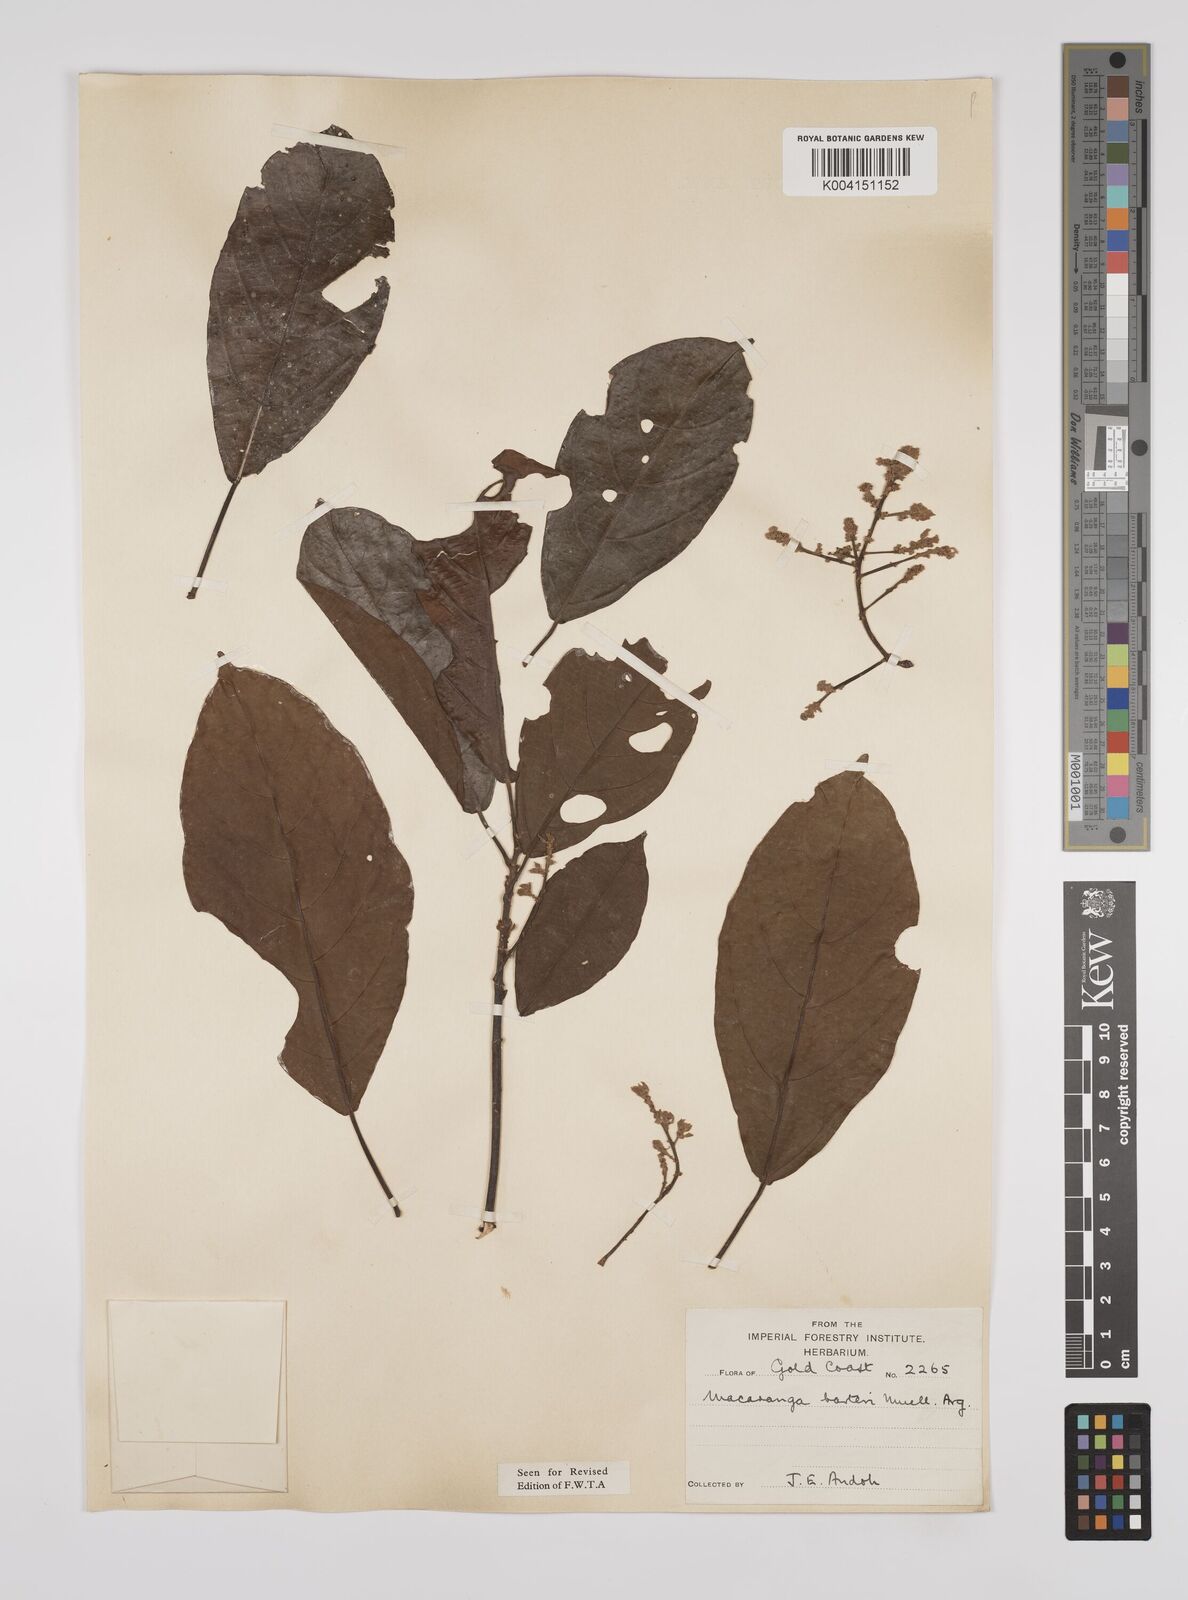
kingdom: Plantae
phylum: Tracheophyta
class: Magnoliopsida
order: Malpighiales
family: Euphorbiaceae
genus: Macaranga
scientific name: Macaranga barteri
